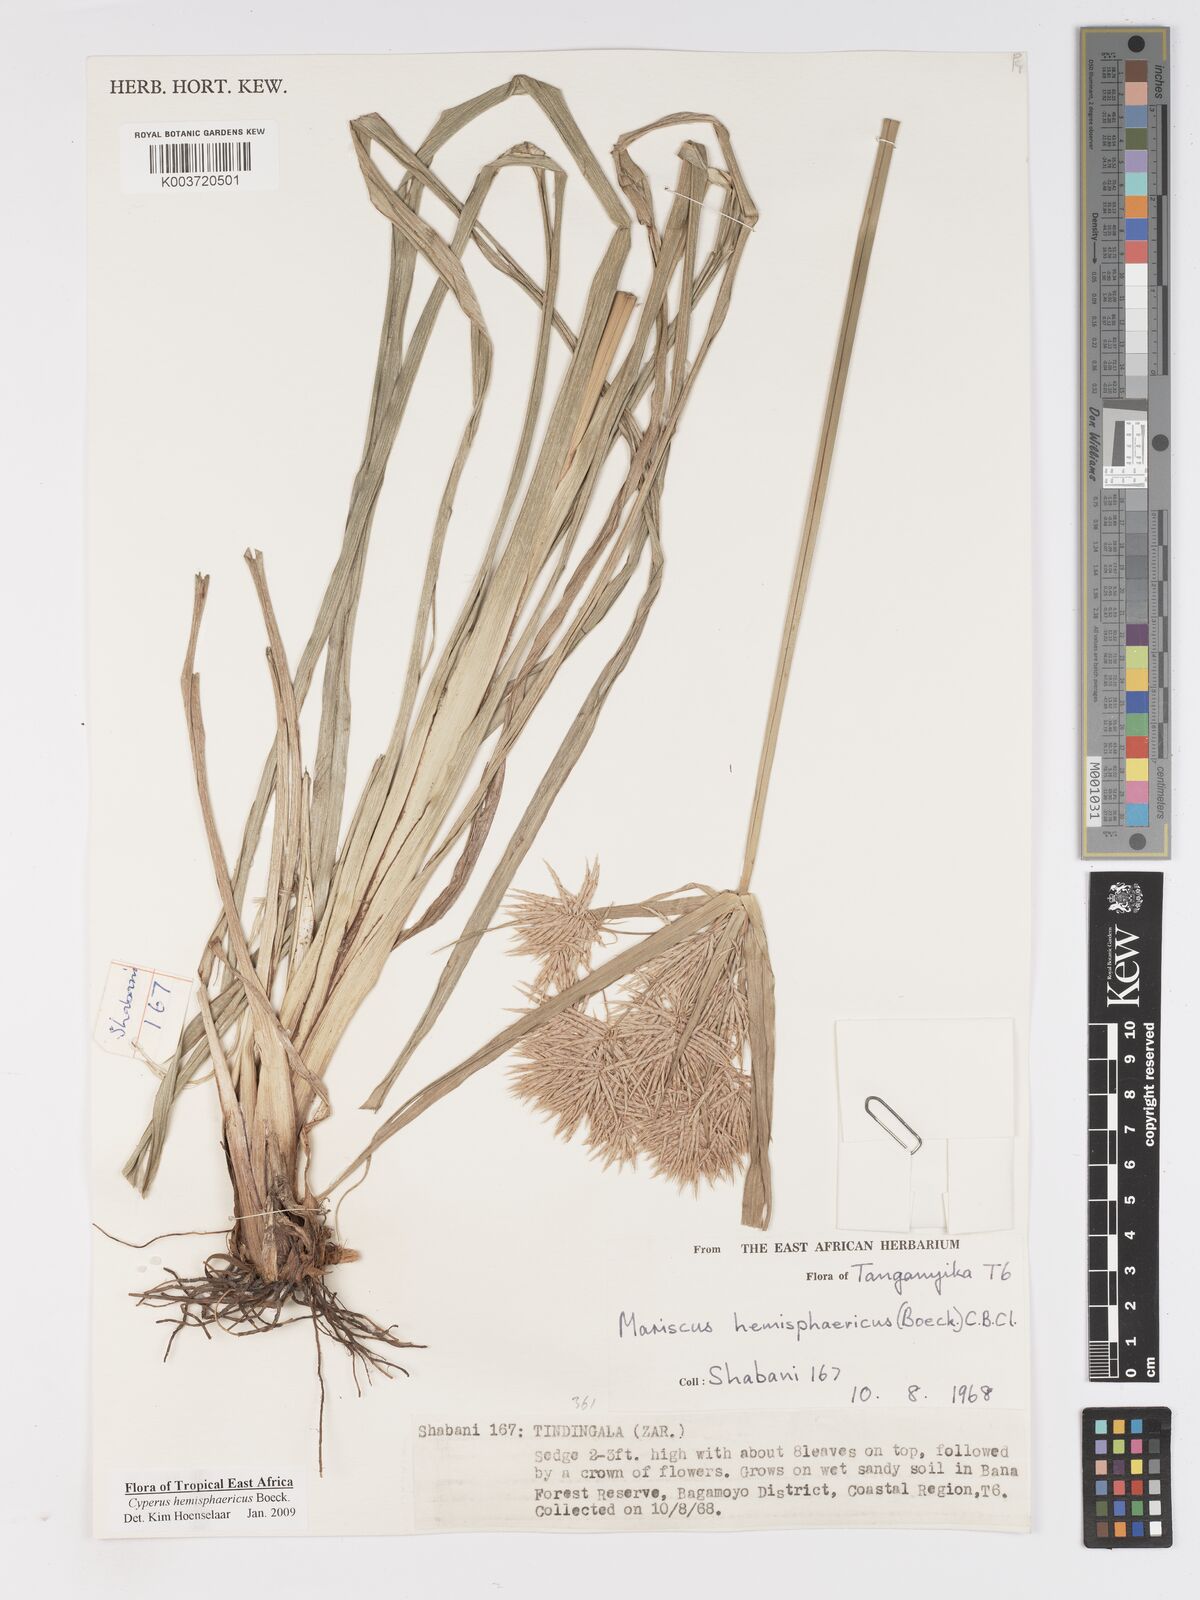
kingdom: Plantae
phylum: Tracheophyta
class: Liliopsida
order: Poales
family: Cyperaceae
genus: Cyperus
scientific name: Cyperus hemisphaericus
